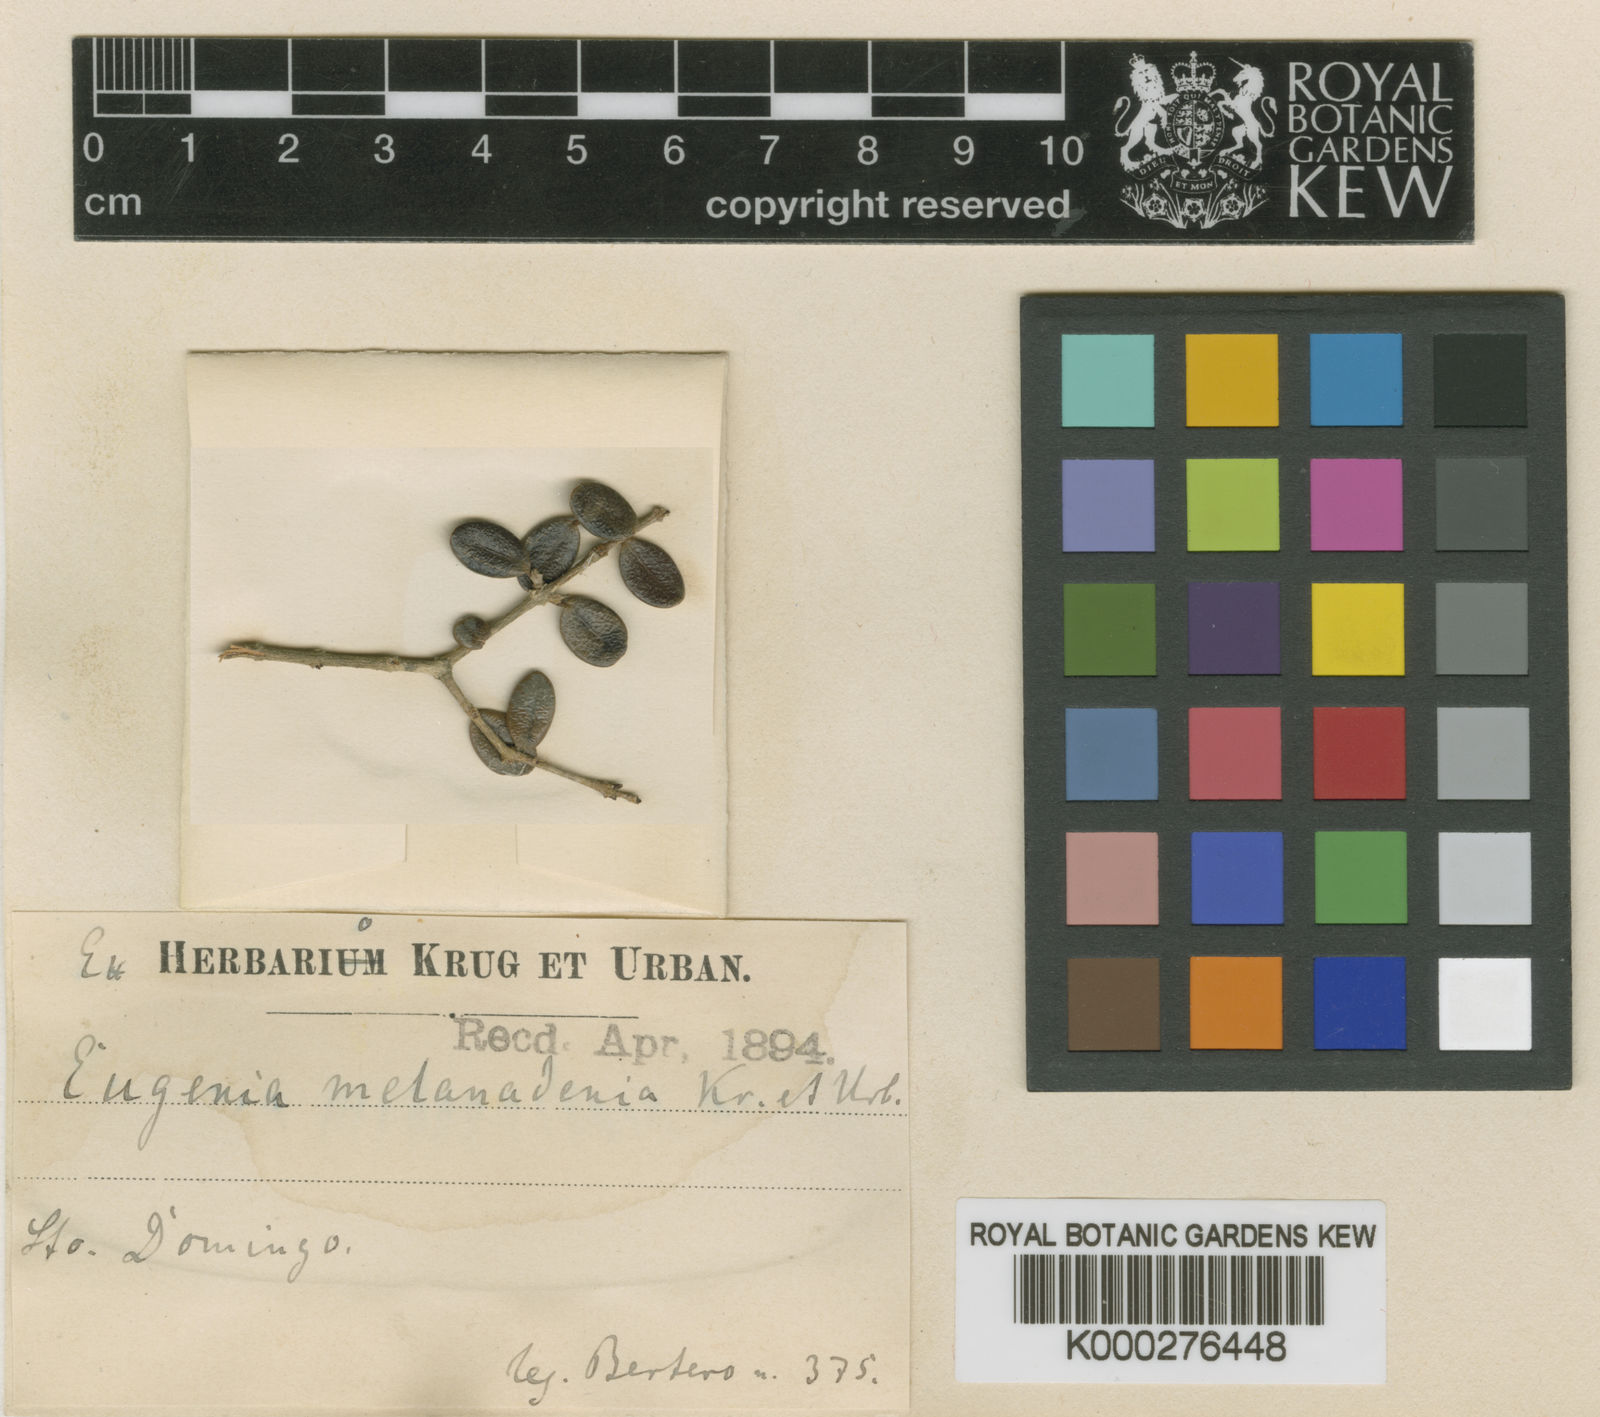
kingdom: Plantae
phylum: Tracheophyta
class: Magnoliopsida
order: Myrtales
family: Myrtaceae
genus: Eugenia
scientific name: Eugenia melanadenia
